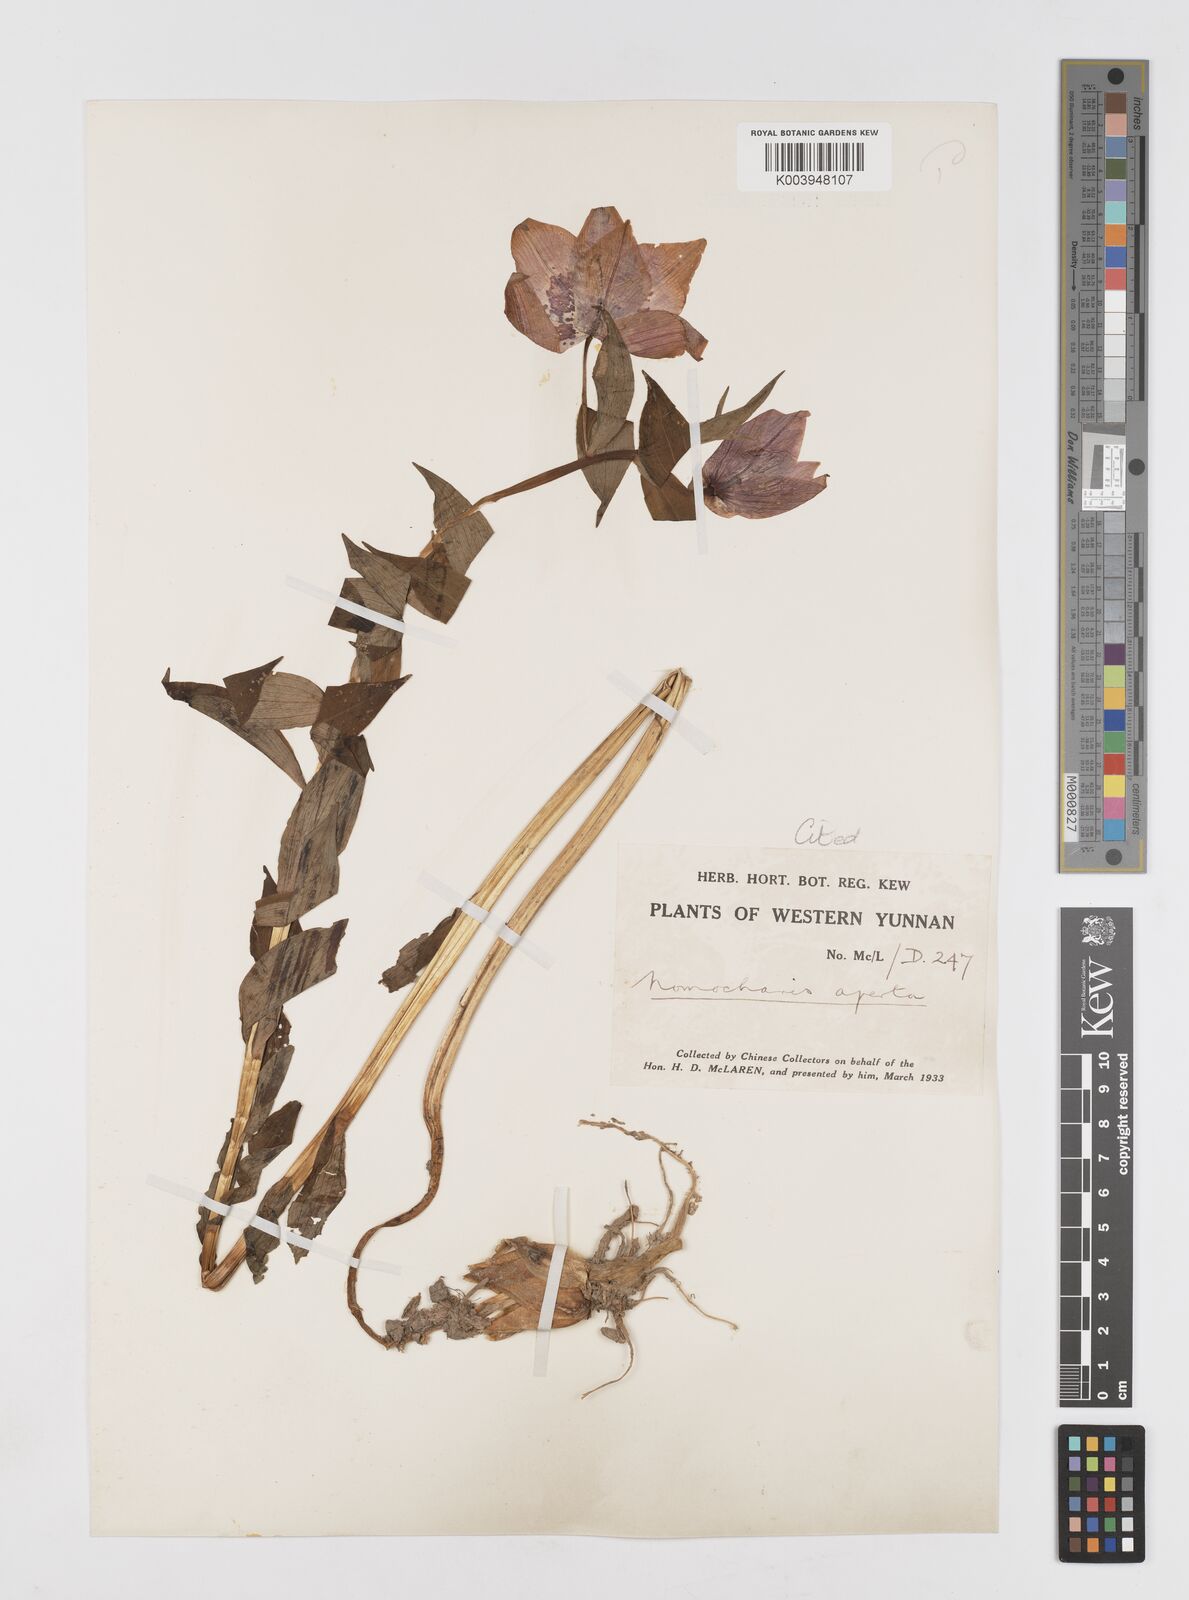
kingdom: Plantae
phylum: Tracheophyta
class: Liliopsida
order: Liliales
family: Liliaceae
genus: Lilium
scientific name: Lilium apertum
